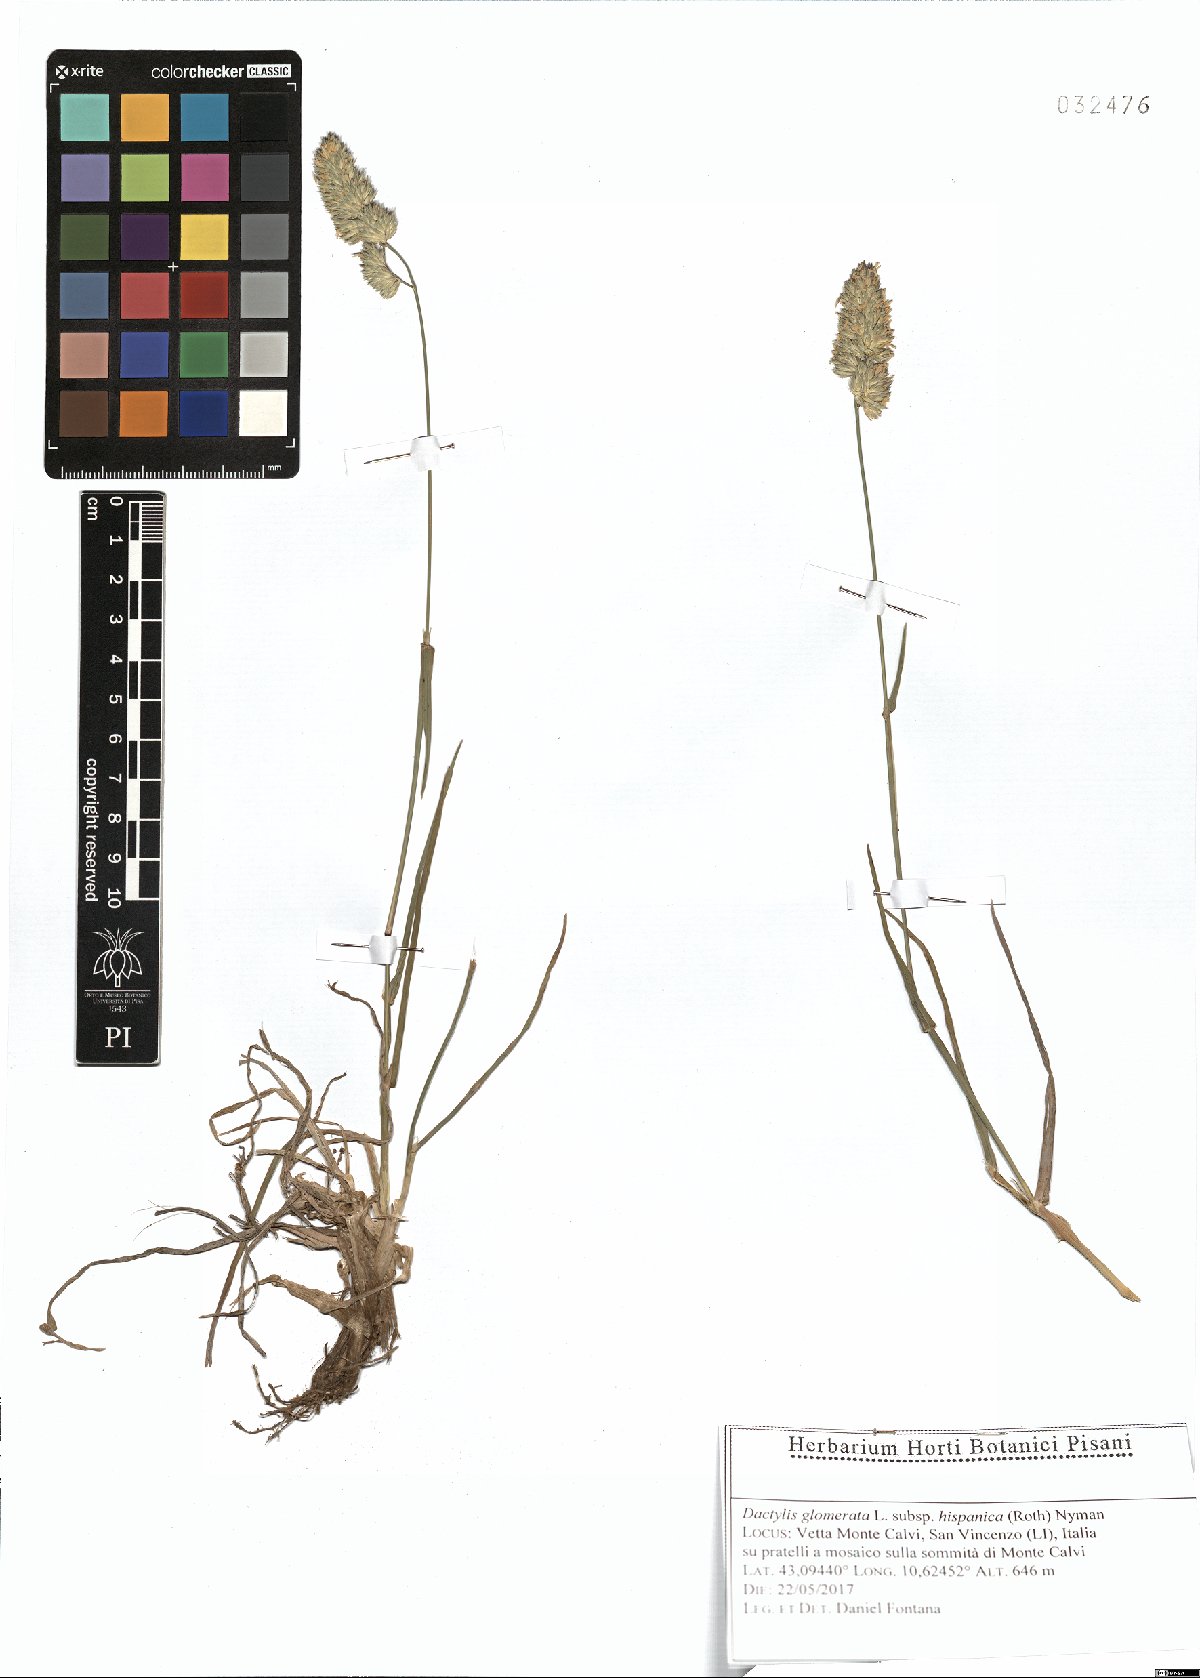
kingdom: Plantae
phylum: Tracheophyta
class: Liliopsida
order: Poales
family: Poaceae
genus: Dactylis
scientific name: Dactylis glomerata
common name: Orchardgrass
